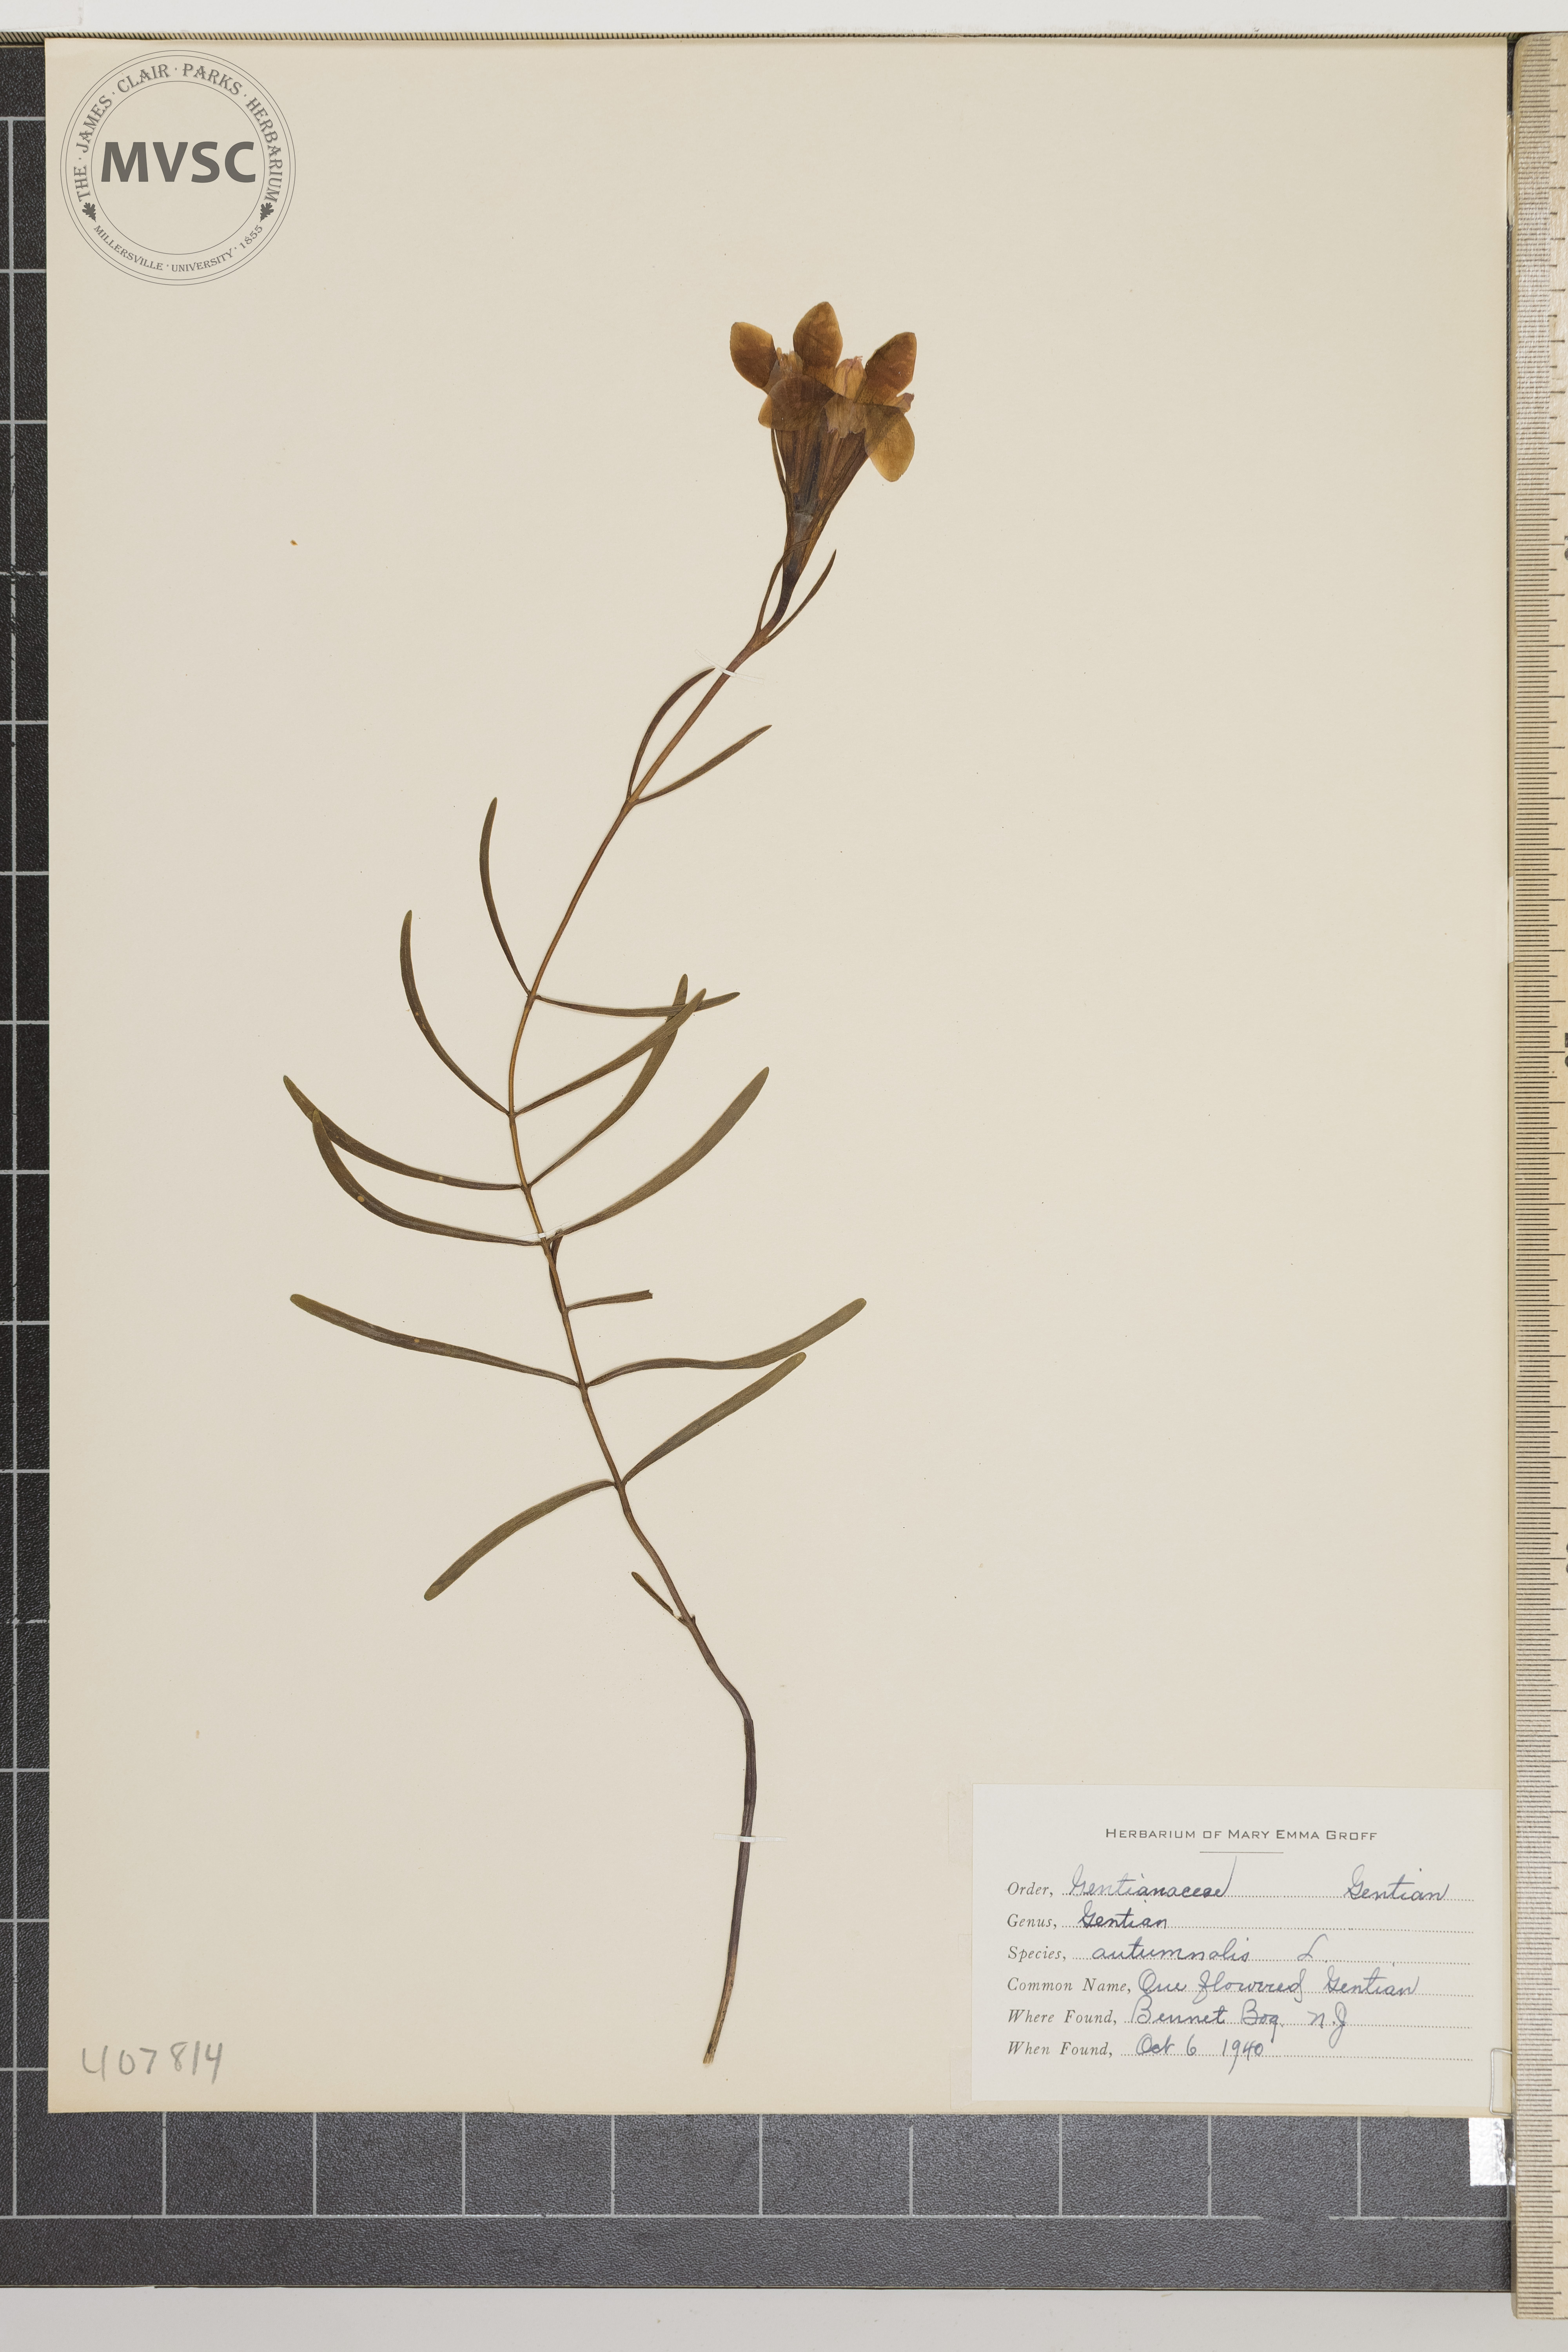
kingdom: Plantae
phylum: Tracheophyta
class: Magnoliopsida
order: Gentianales
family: Gentianaceae
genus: Gentiana
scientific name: Gentiana autumnalis
